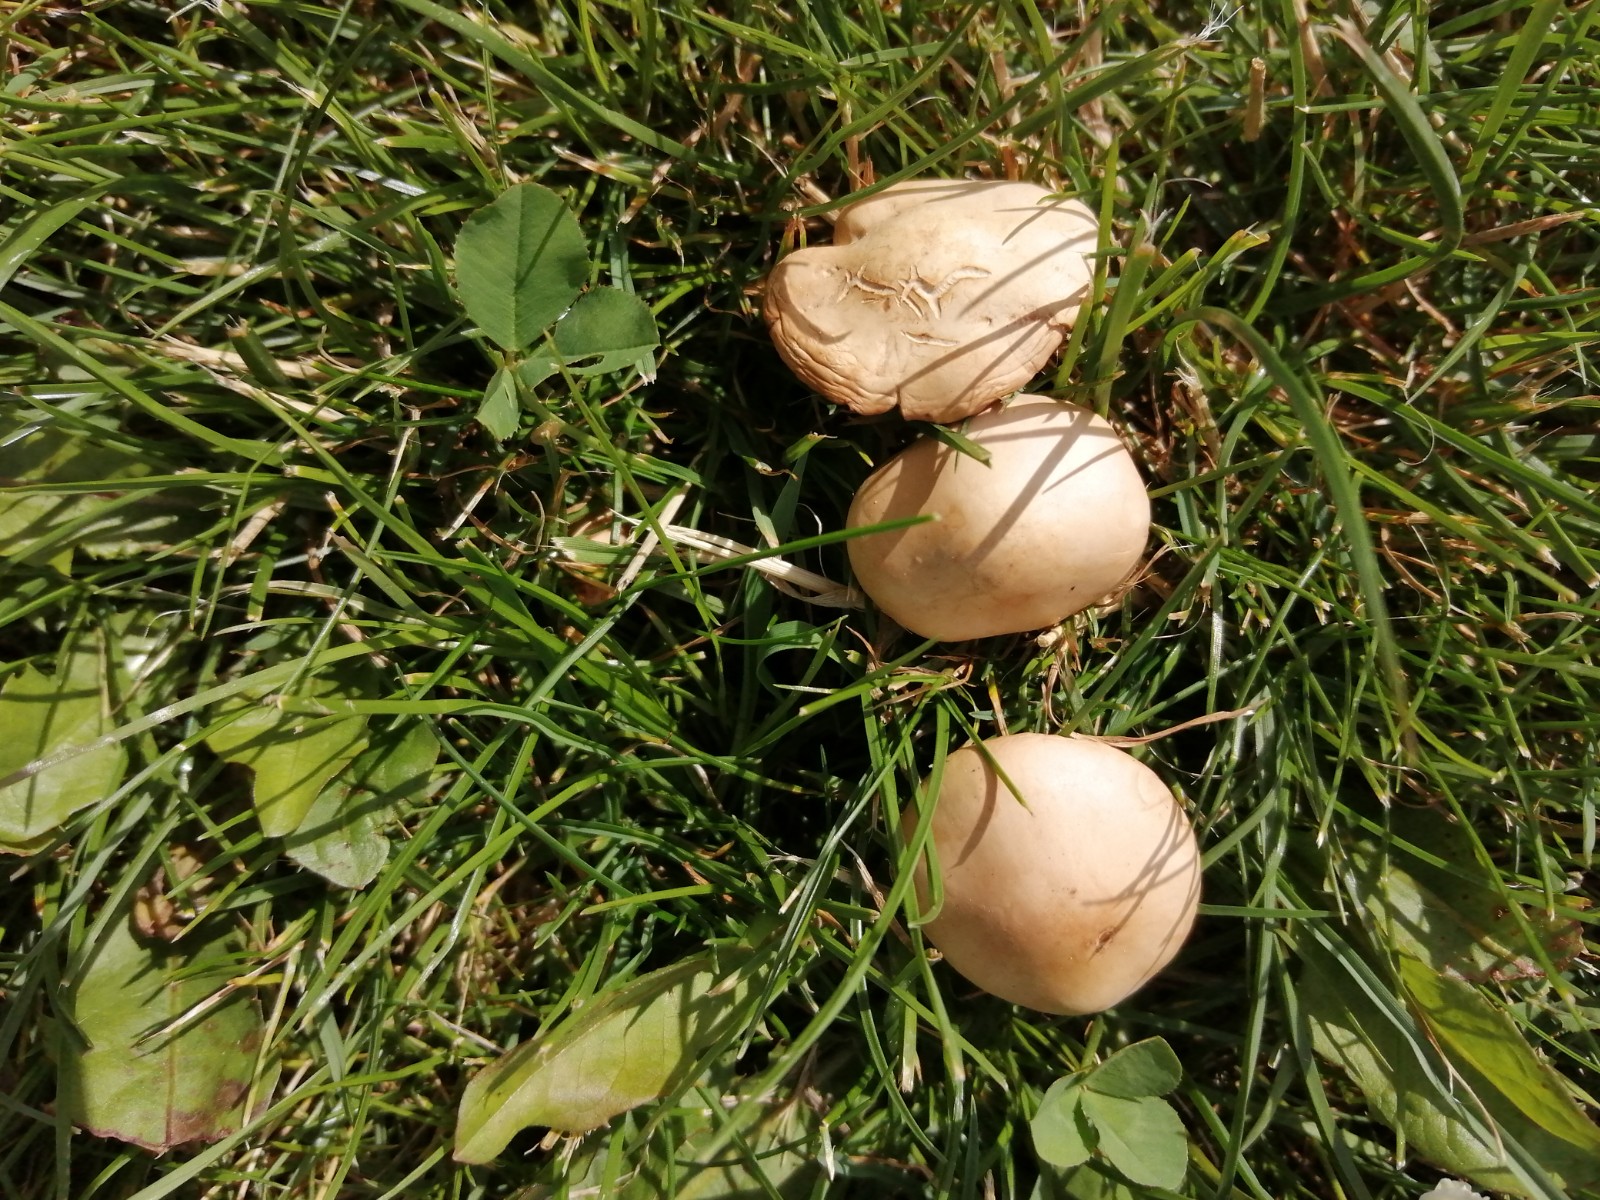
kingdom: Fungi
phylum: Basidiomycota
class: Agaricomycetes
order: Agaricales
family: Marasmiaceae
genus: Marasmius
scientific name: Marasmius oreades
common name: elledans-bruskhat
